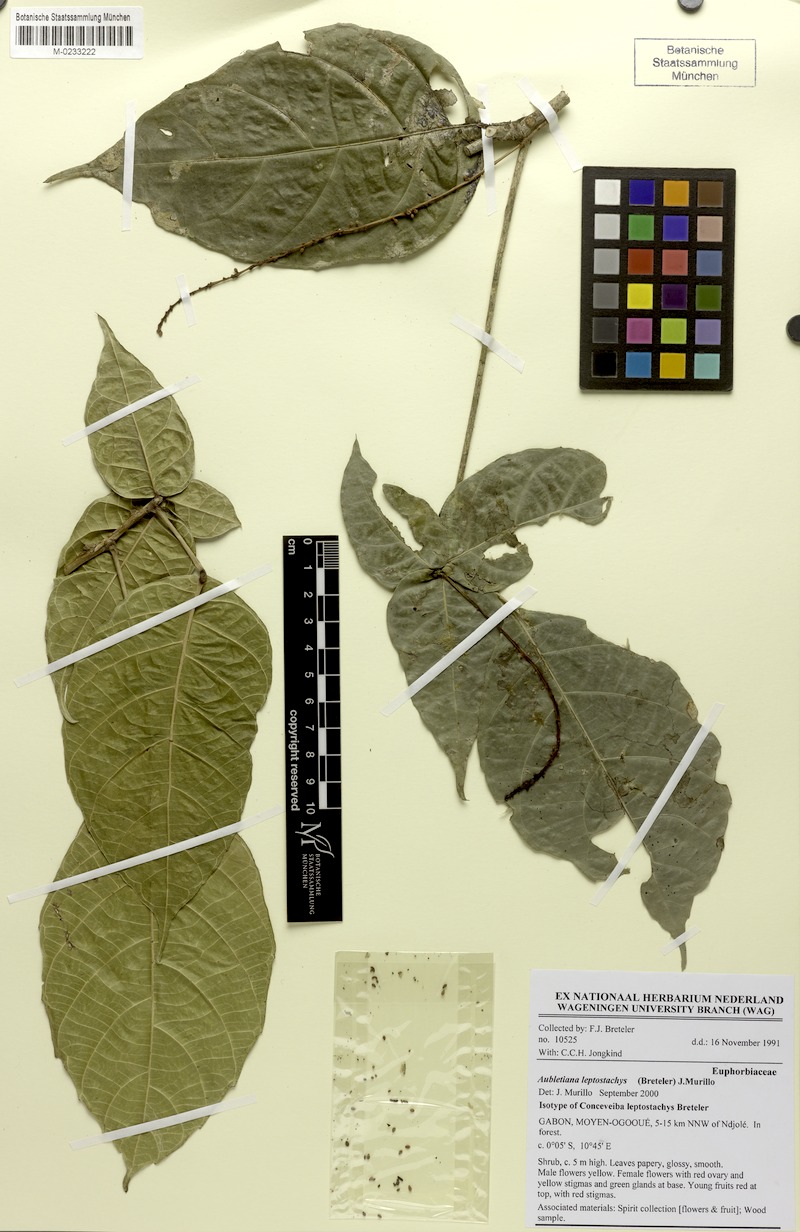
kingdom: Plantae
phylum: Tracheophyta
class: Magnoliopsida
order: Malpighiales
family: Euphorbiaceae
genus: Aubletiana
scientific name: Aubletiana leptostachys
